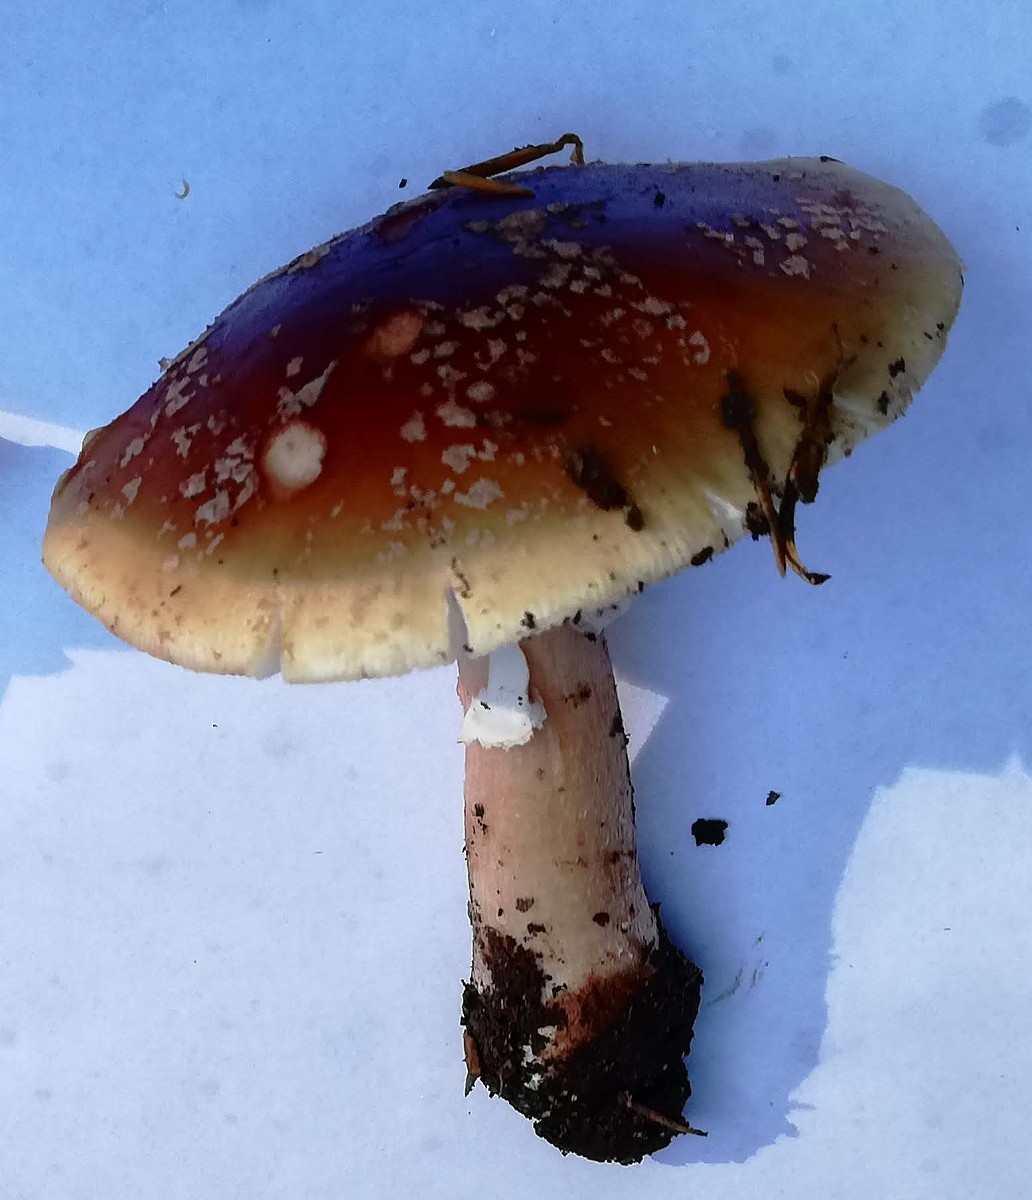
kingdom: Fungi
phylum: Basidiomycota
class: Agaricomycetes
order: Agaricales
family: Amanitaceae
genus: Amanita
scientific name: Amanita rubescens
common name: rødmende fluesvamp
